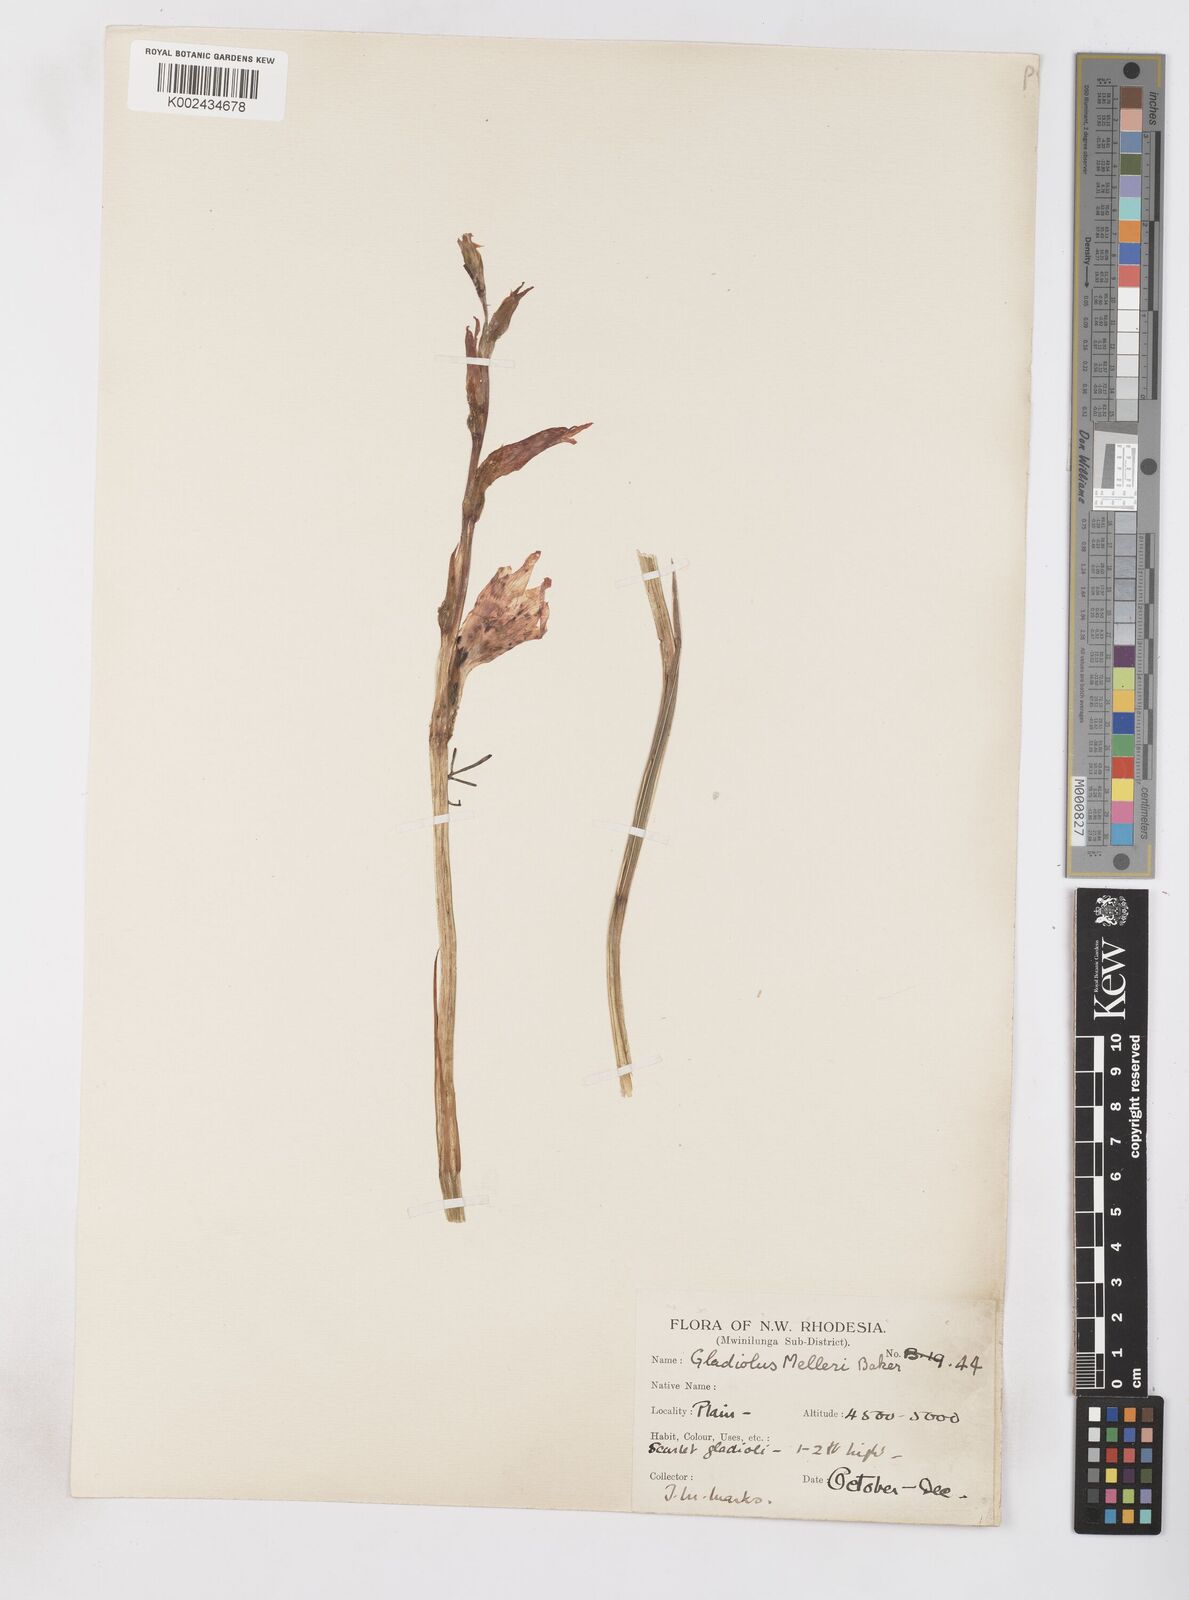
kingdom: Plantae
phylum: Tracheophyta
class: Liliopsida
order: Asparagales
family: Iridaceae
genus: Gladiolus
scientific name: Gladiolus melleri
